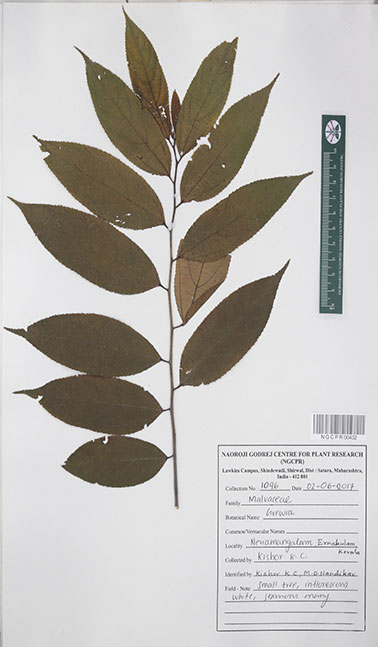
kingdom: Plantae
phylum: Tracheophyta
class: Magnoliopsida
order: Malvales
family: Malvaceae
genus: Grewia
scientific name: Grewia multiflora
